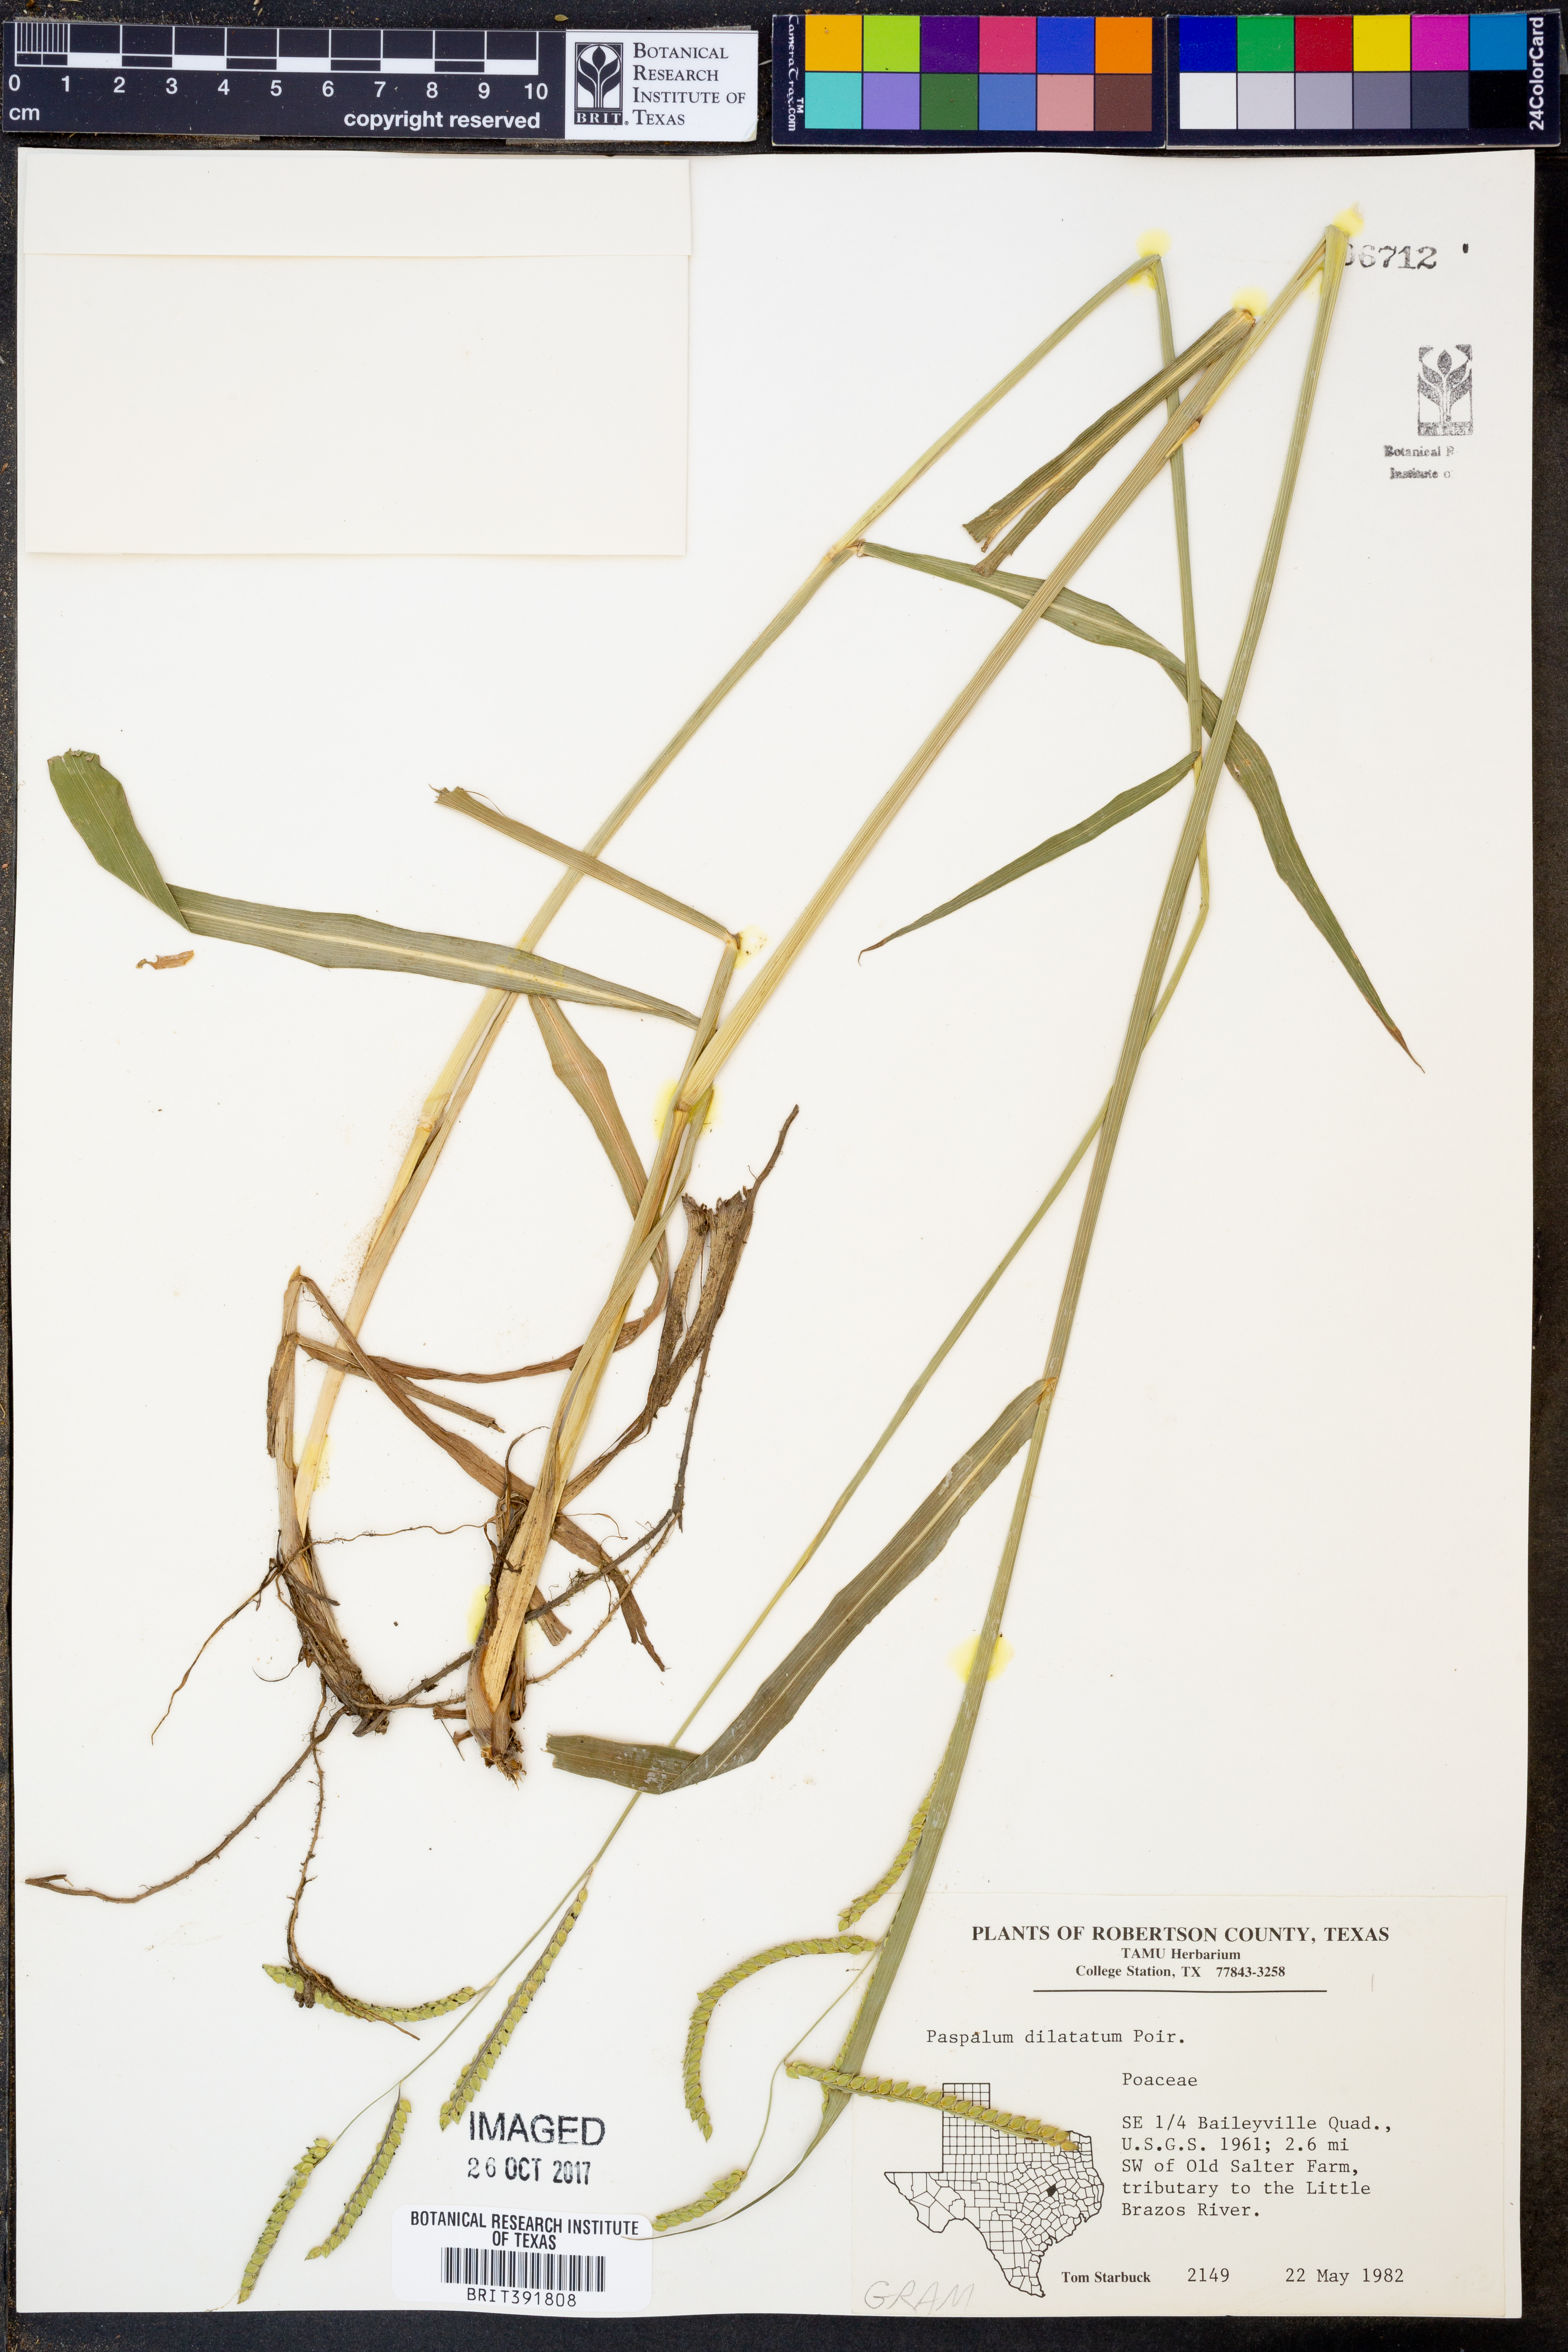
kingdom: Plantae
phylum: Tracheophyta
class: Liliopsida
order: Poales
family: Poaceae
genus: Paspalum
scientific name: Paspalum dilatatum
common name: Dallisgrass
